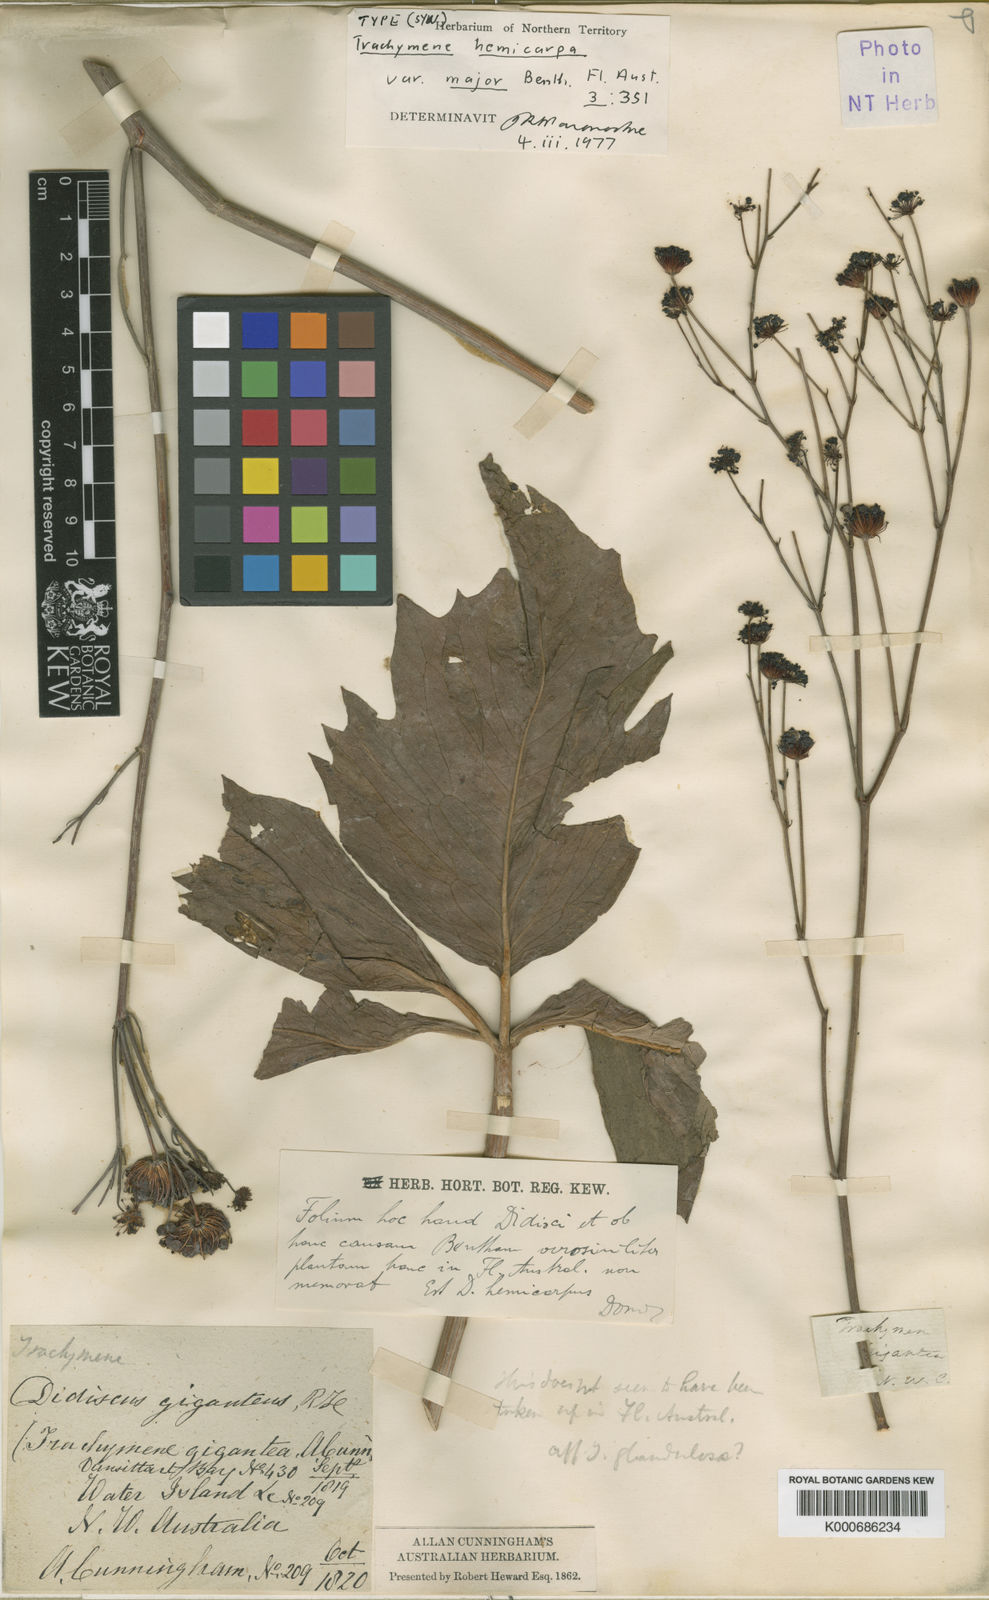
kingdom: Plantae
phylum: Tracheophyta
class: Magnoliopsida
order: Apiales
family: Araliaceae
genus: Trachymene
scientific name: Trachymene didiscoides
